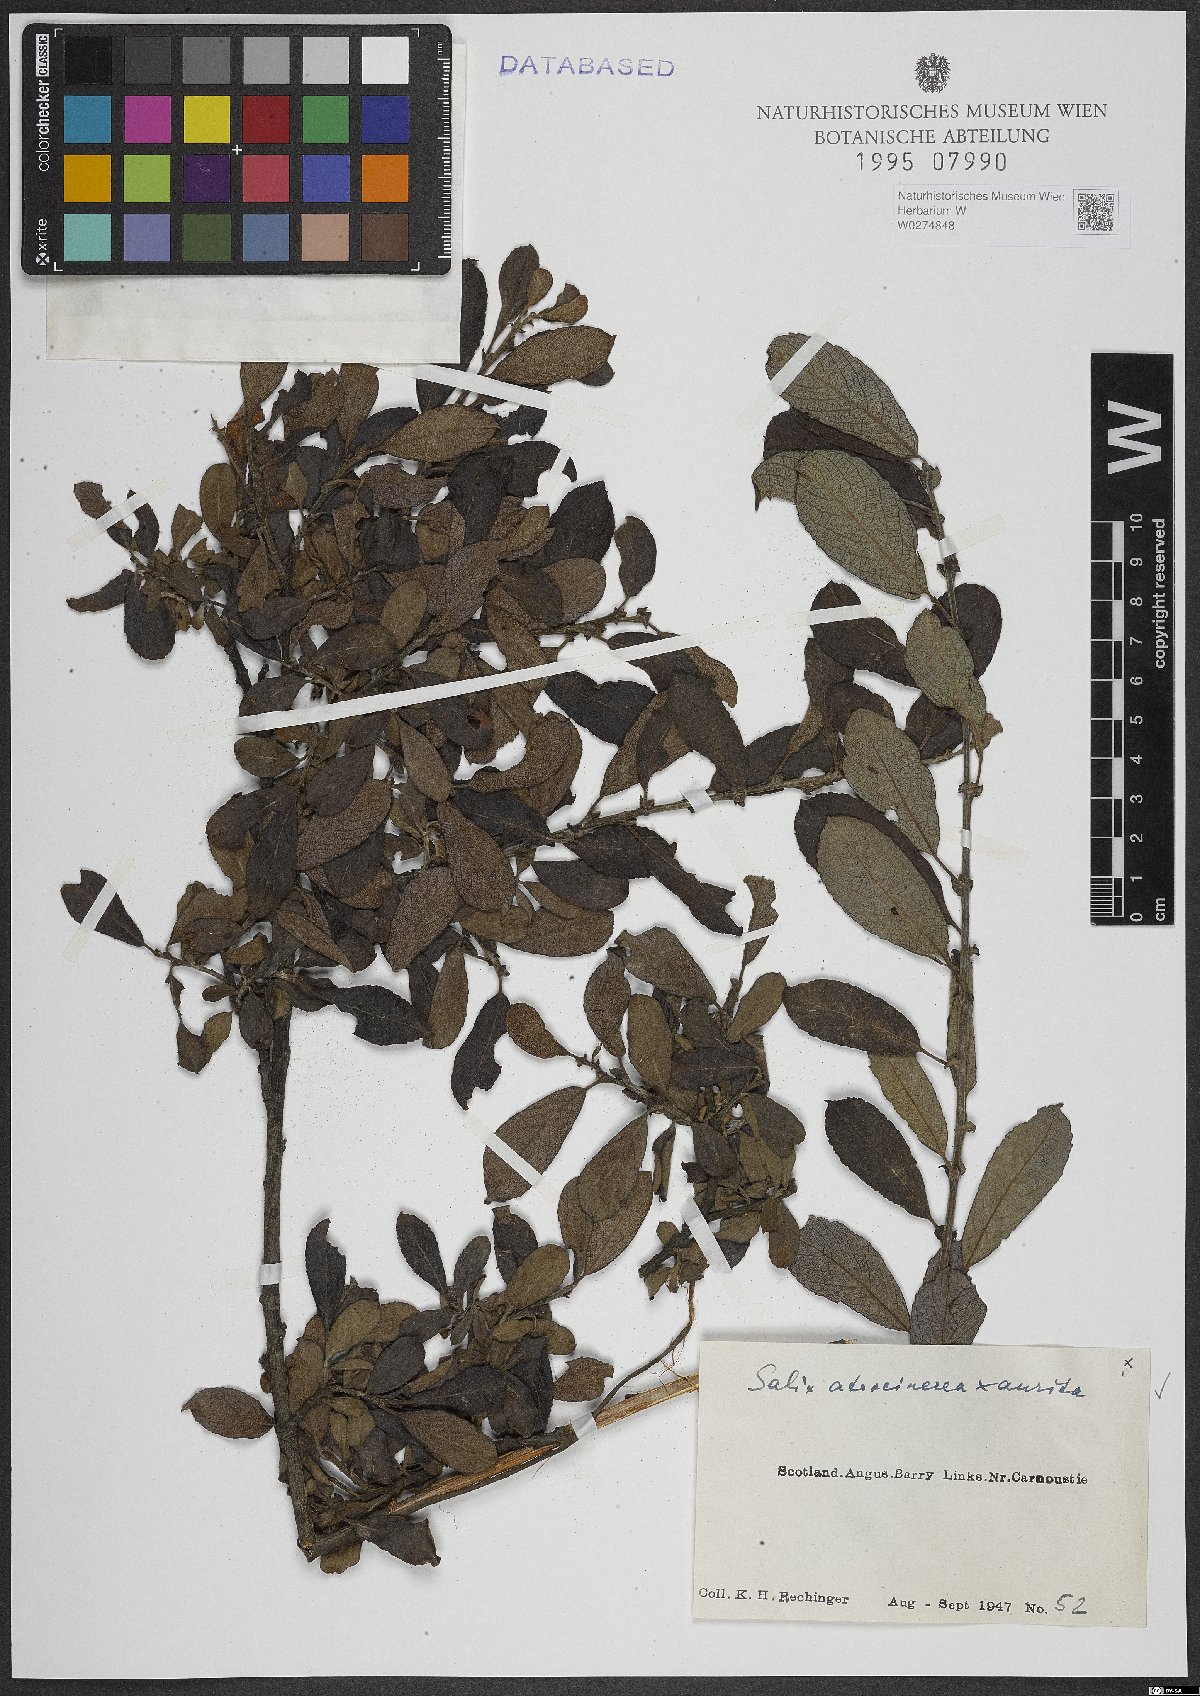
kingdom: Plantae
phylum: Tracheophyta
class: Magnoliopsida
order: Malpighiales
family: Salicaceae
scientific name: Salicaceae
